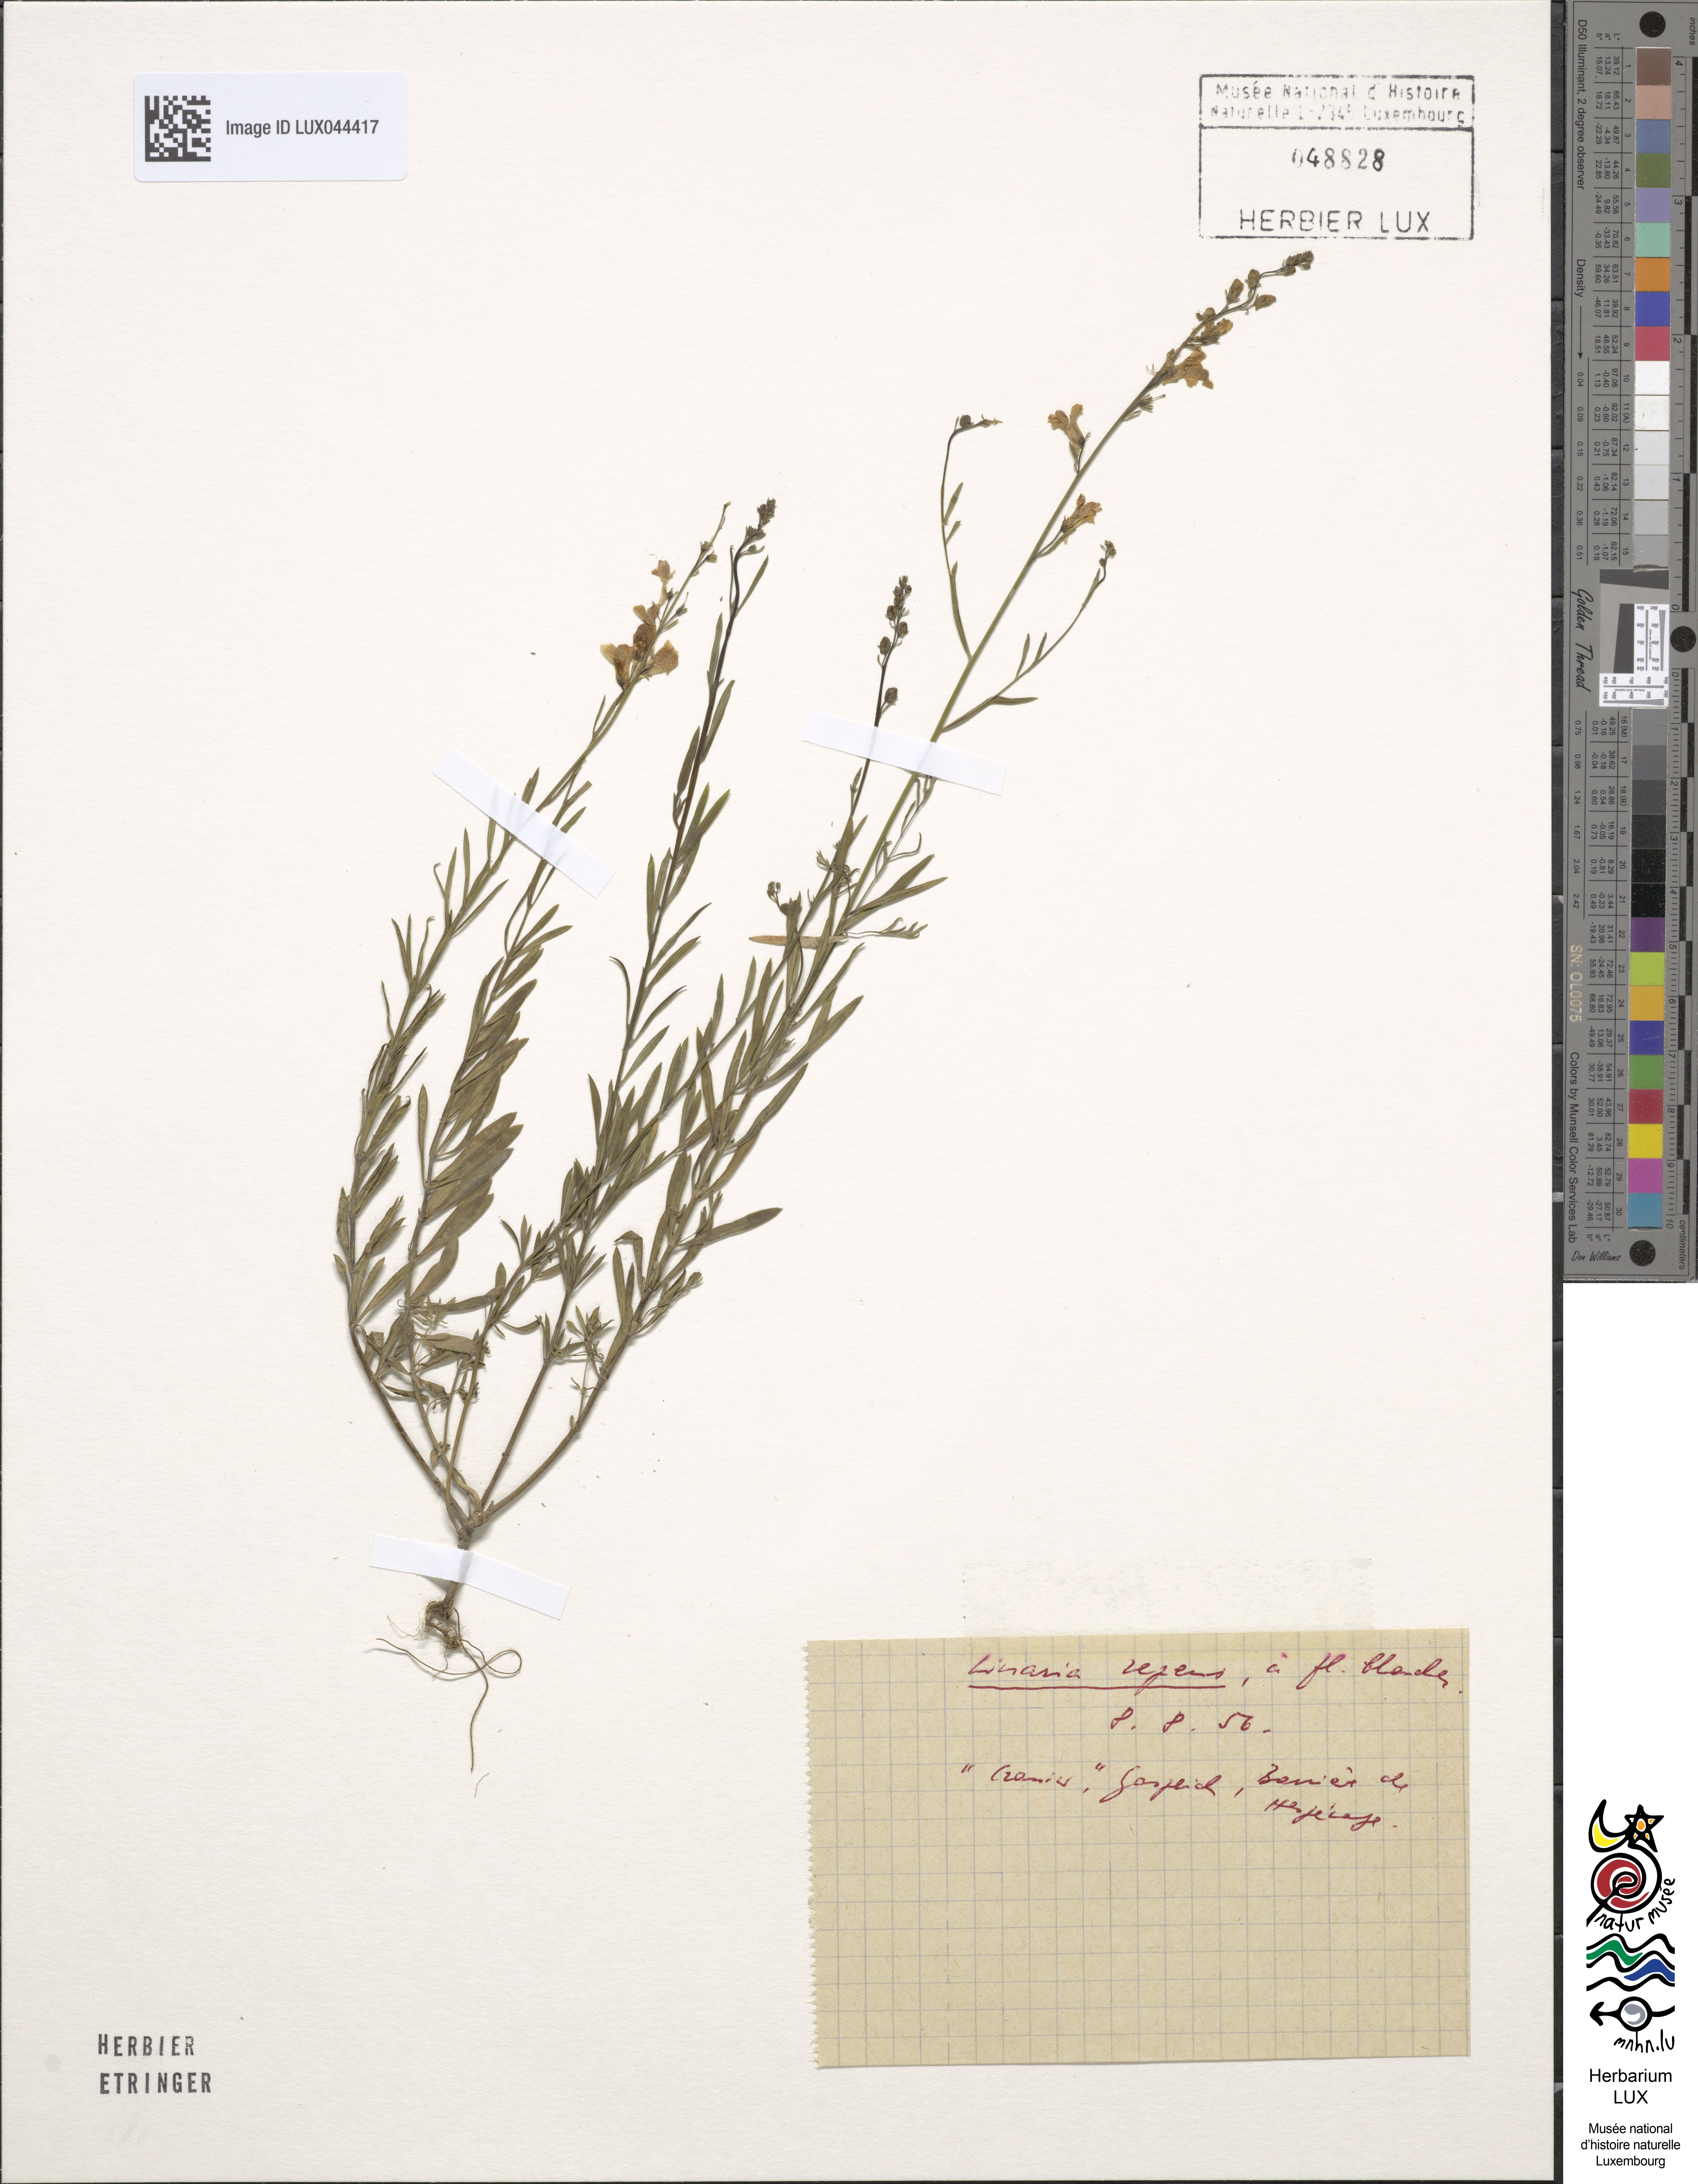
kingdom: Plantae
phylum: Tracheophyta
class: Magnoliopsida
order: Lamiales
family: Plantaginaceae
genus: Linaria
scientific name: Linaria repens
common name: Pale toadflax
